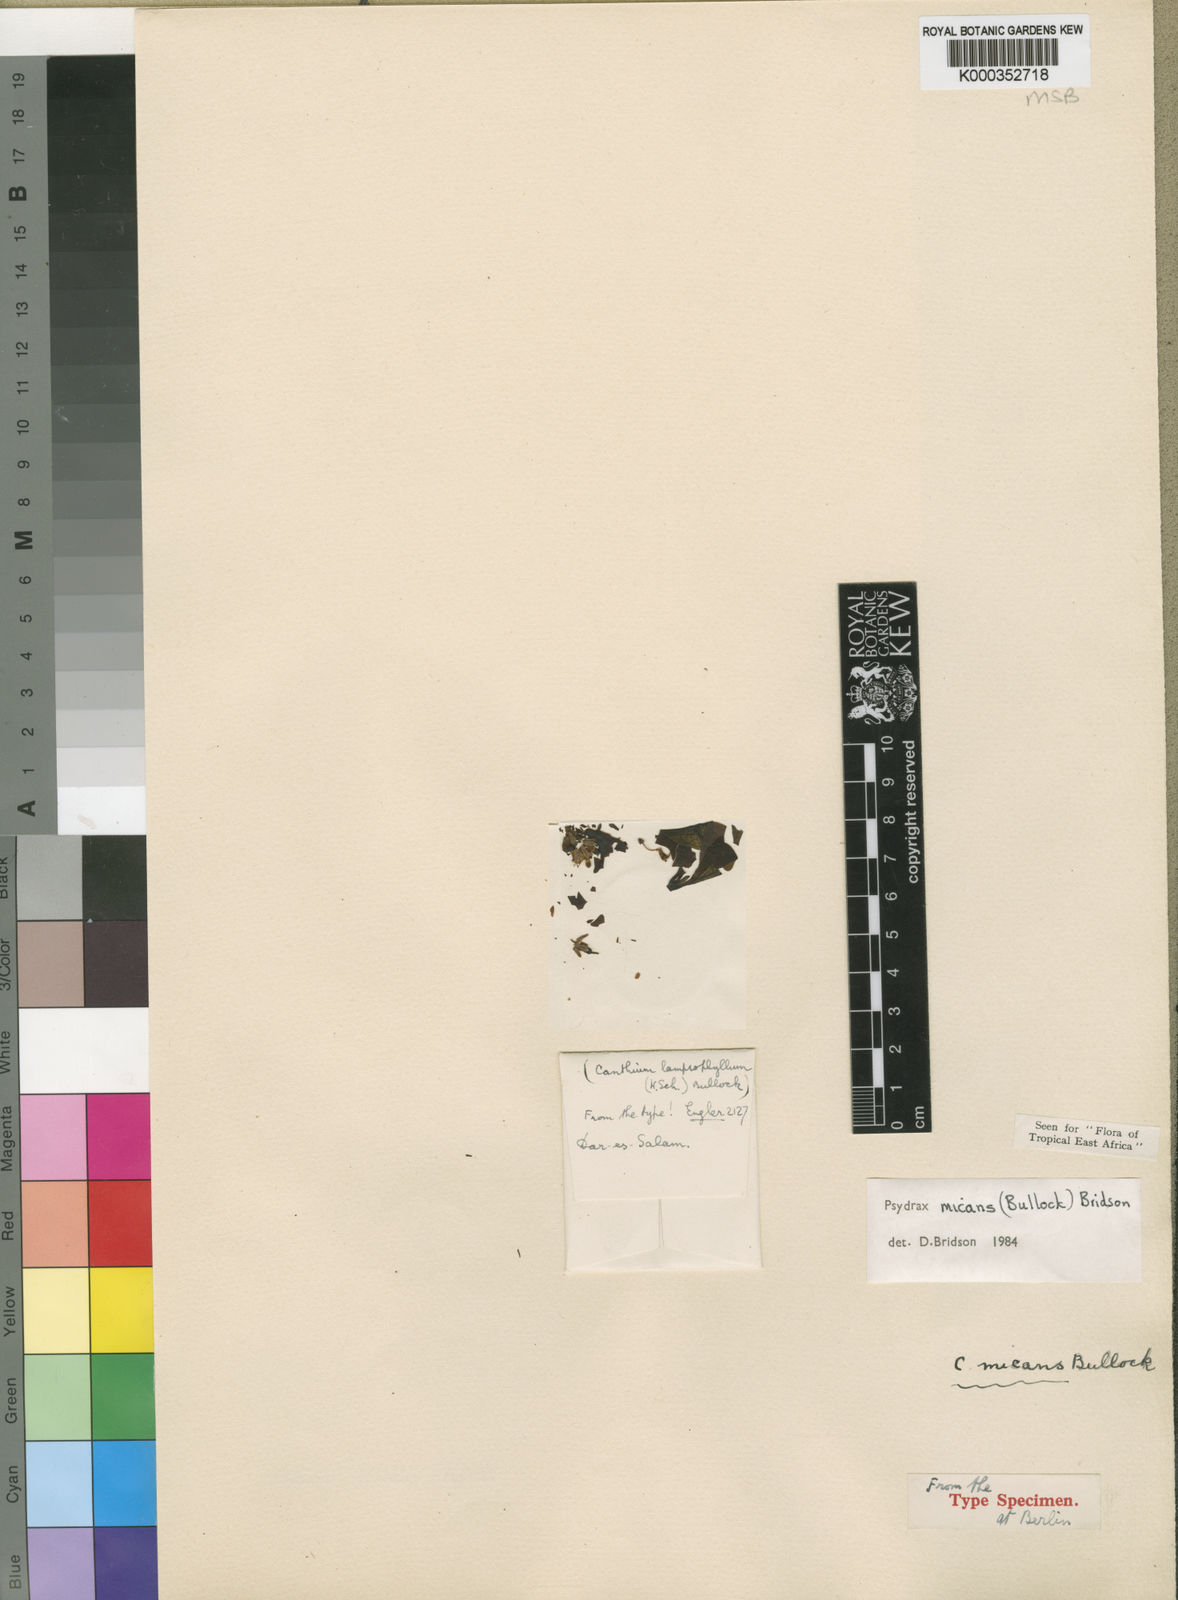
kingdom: Plantae
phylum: Tracheophyta
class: Magnoliopsida
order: Gentianales
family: Rubiaceae
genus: Psydrax
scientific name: Psydrax micans
